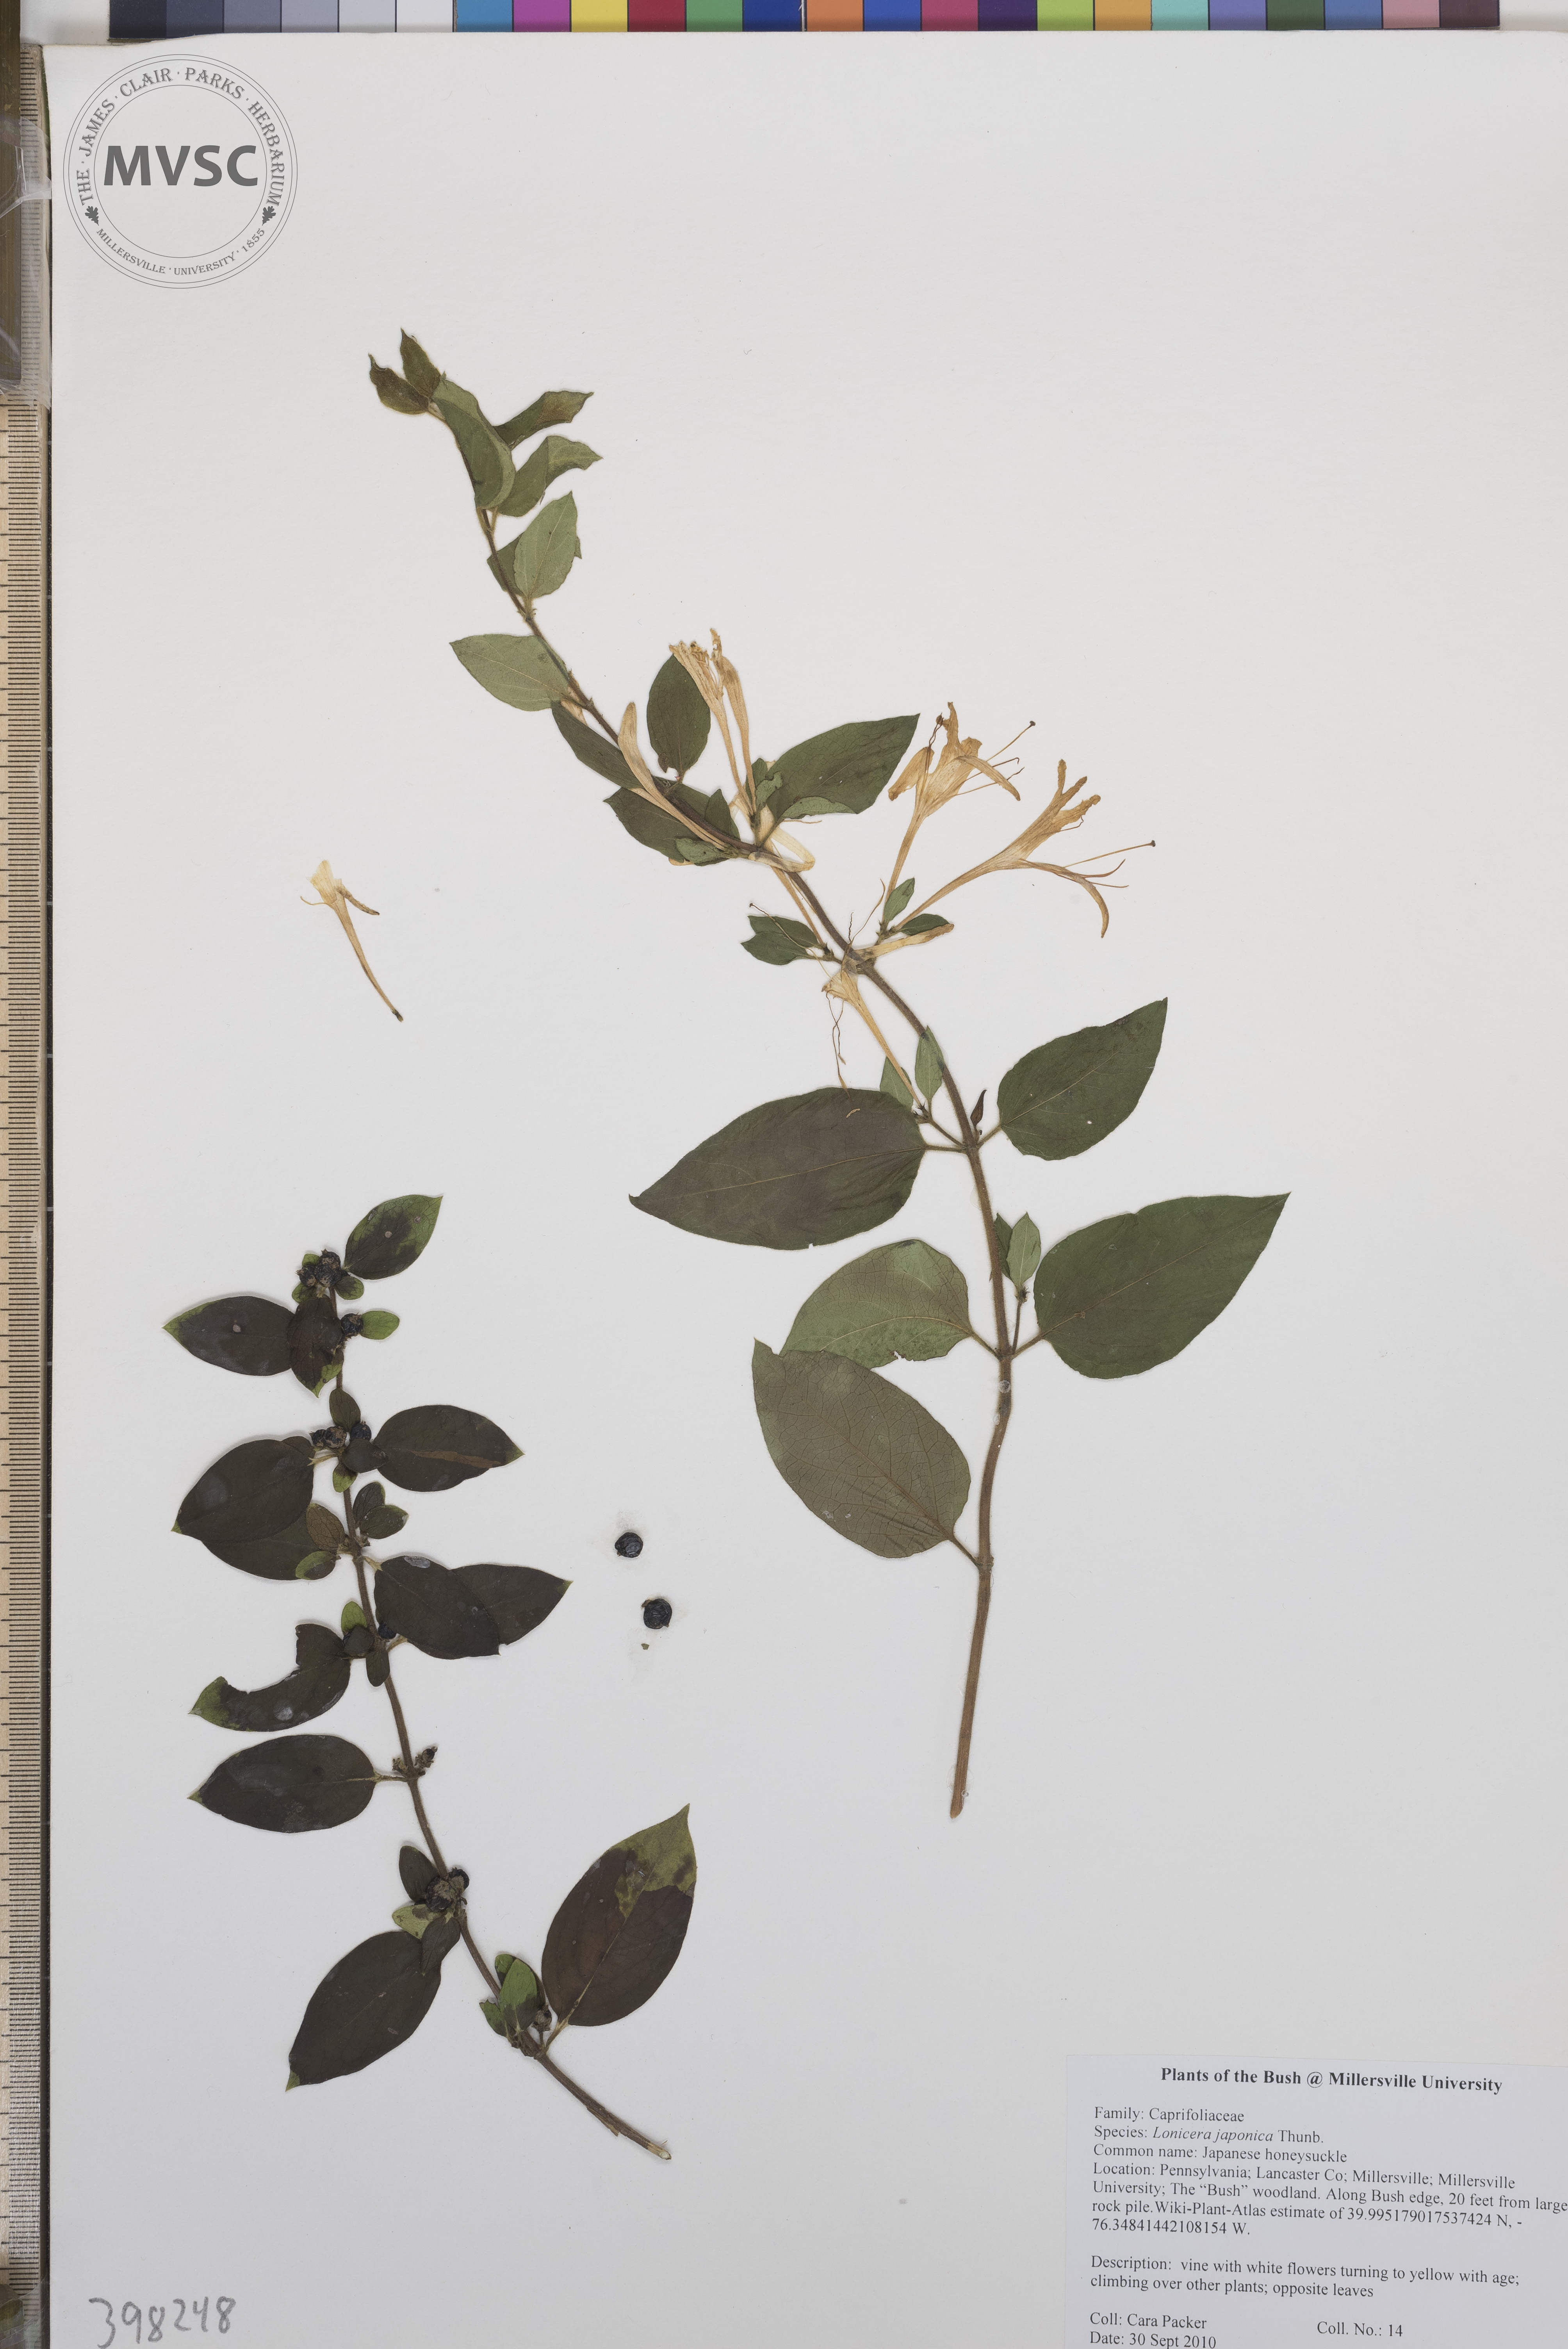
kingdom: Plantae
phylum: Tracheophyta
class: Magnoliopsida
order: Dipsacales
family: Caprifoliaceae
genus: Lonicera
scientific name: Lonicera japonica
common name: Japanese honeysuckle
